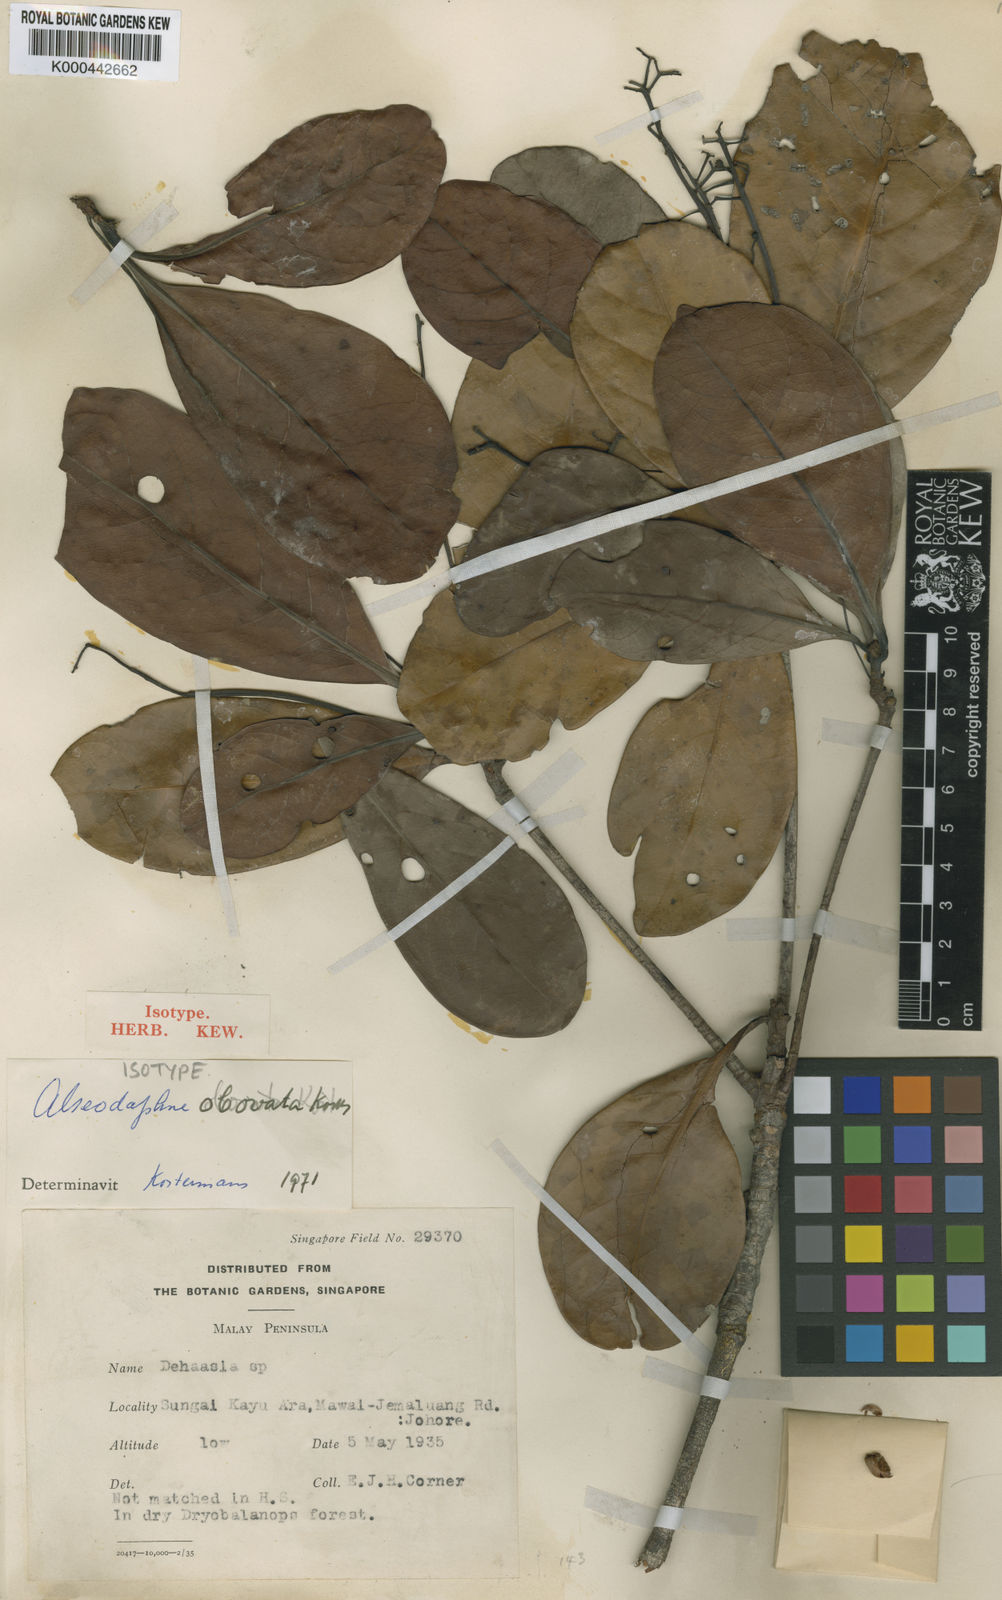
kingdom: Plantae
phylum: Tracheophyta
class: Magnoliopsida
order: Laurales
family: Lauraceae
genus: Alseodaphne
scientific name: Alseodaphne obovata
